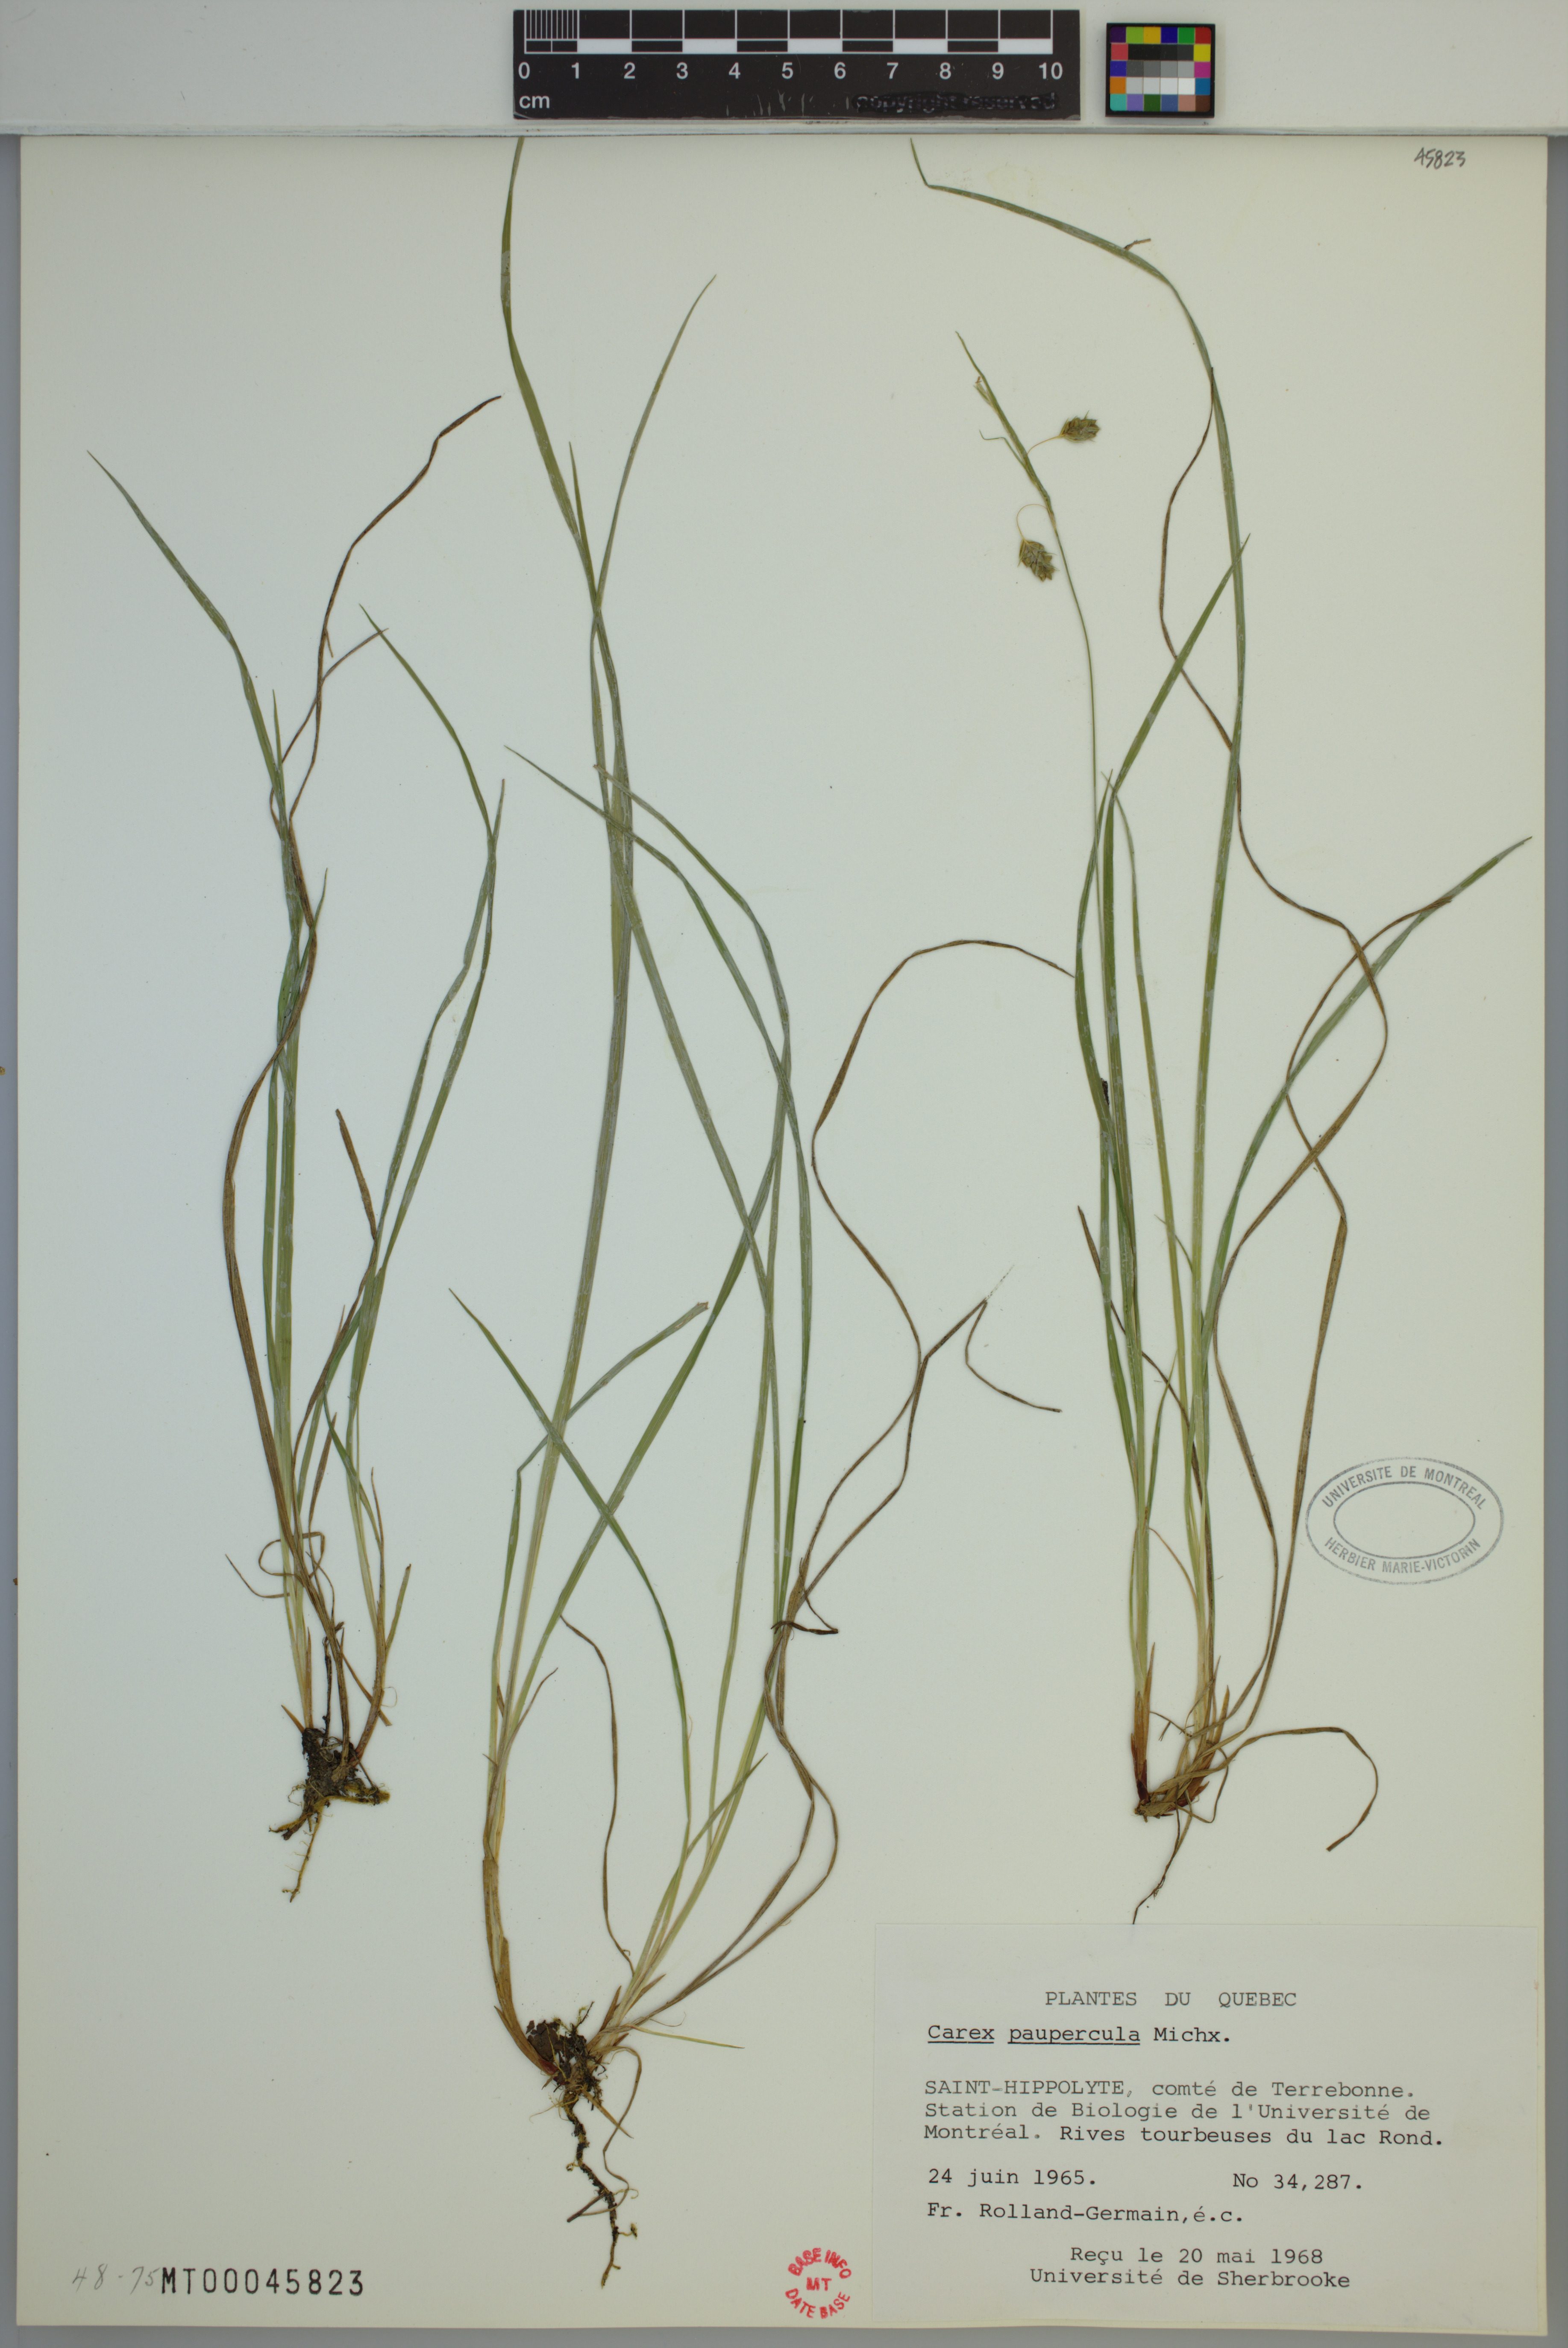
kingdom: Plantae
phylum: Tracheophyta
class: Liliopsida
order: Poales
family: Cyperaceae
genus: Carex
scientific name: Carex magellanica
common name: Bog sedge
